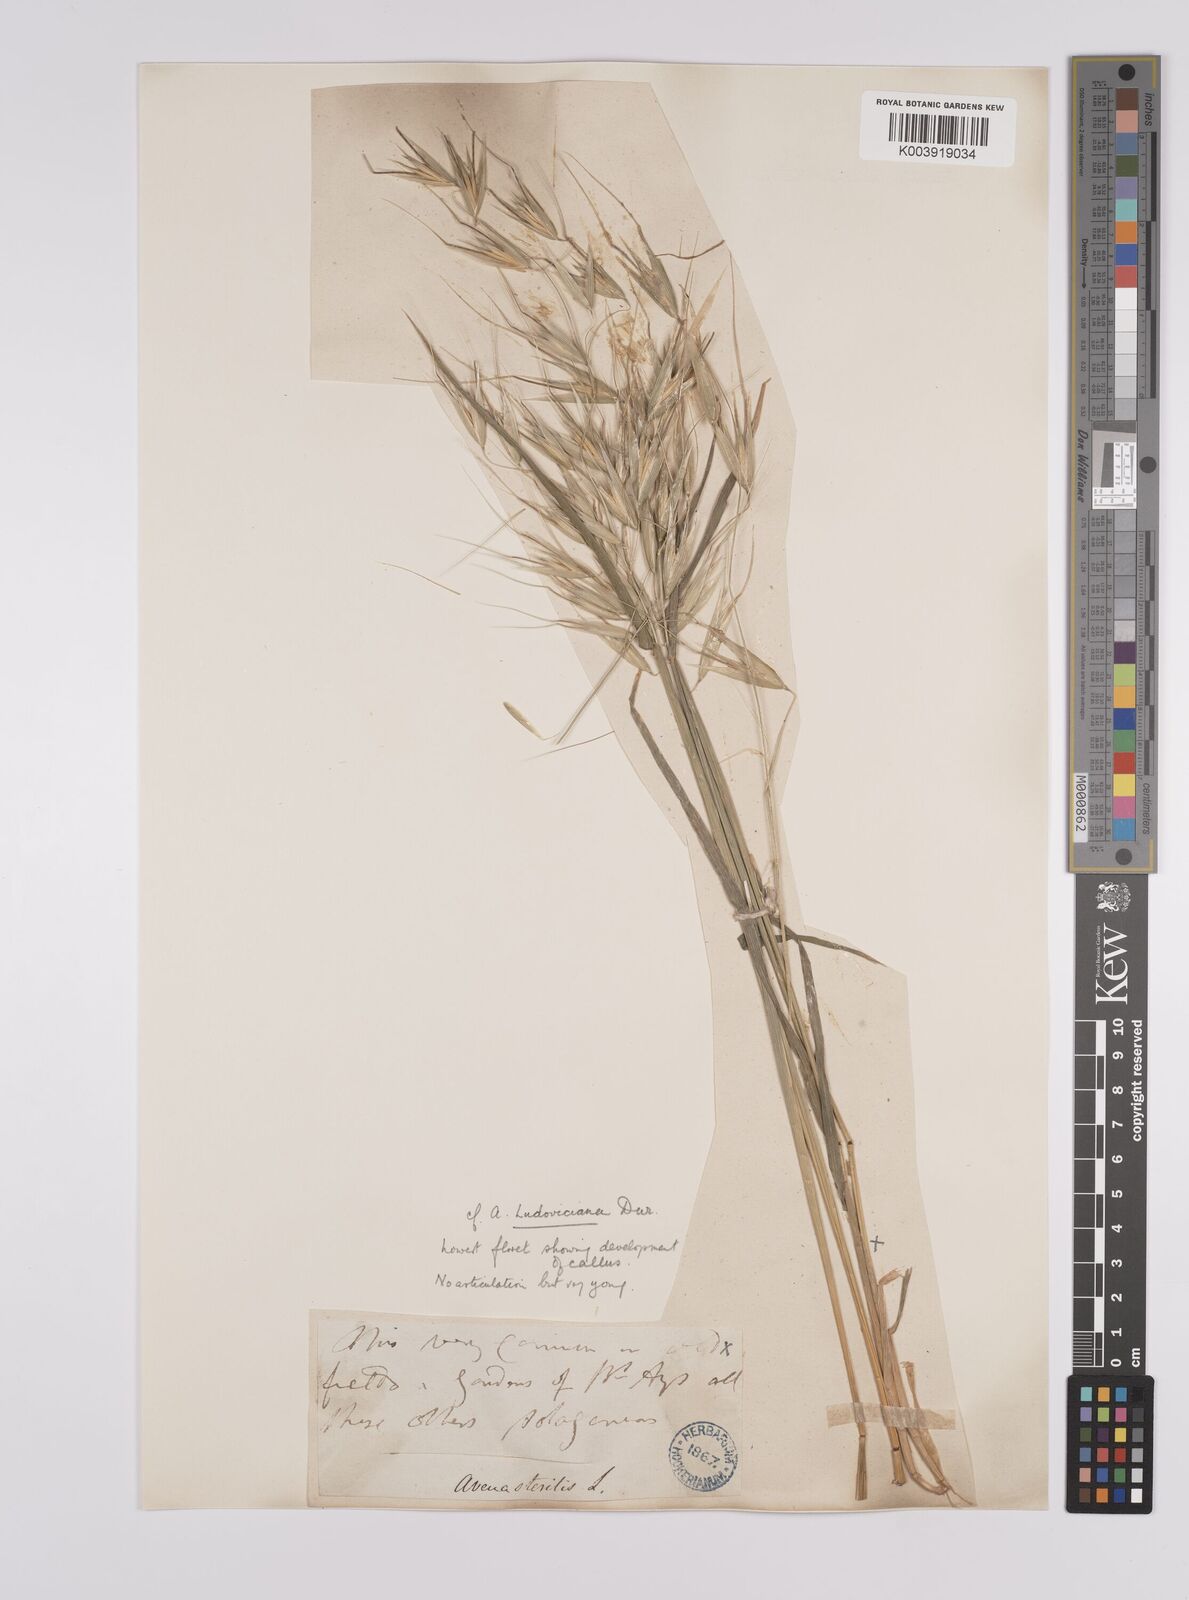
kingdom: Plantae
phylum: Tracheophyta
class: Liliopsida
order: Poales
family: Poaceae
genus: Avena
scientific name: Avena sterilis
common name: Animated oat
